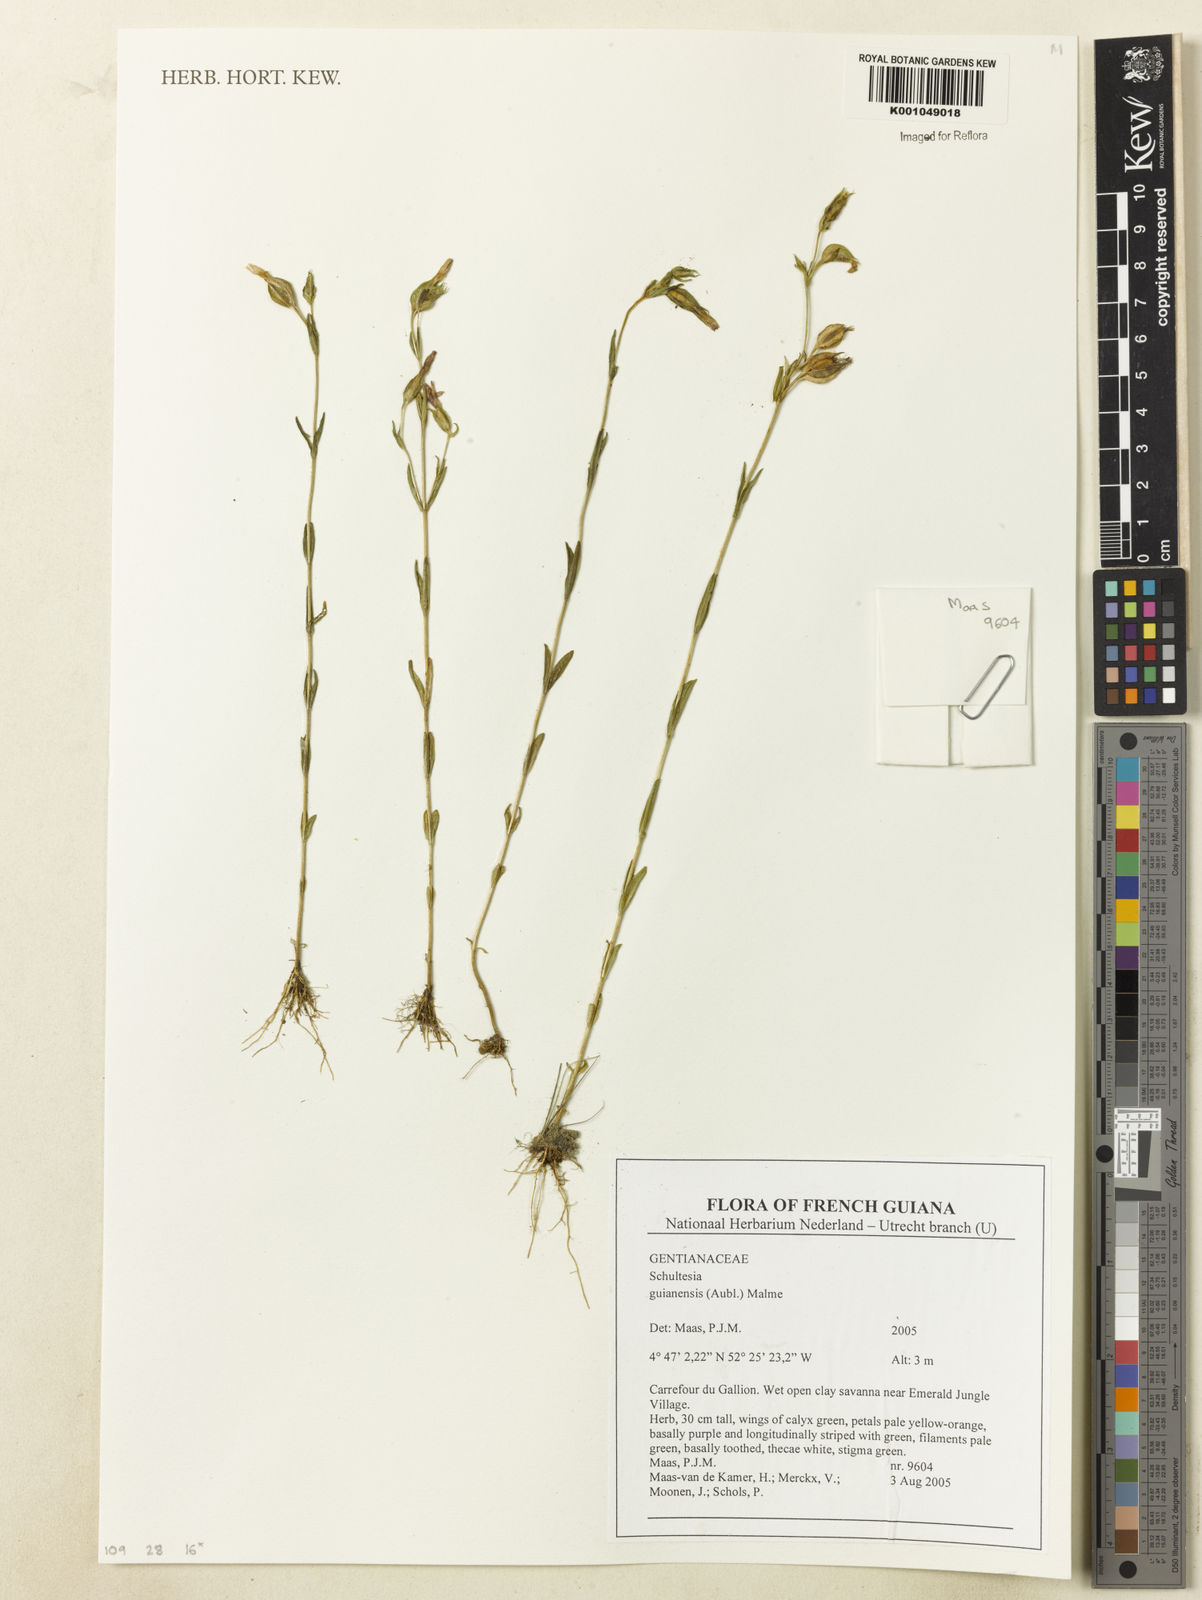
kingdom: Plantae
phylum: Tracheophyta
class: Magnoliopsida
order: Gentianales
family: Gentianaceae
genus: Schultesia
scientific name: Schultesia guianensis
